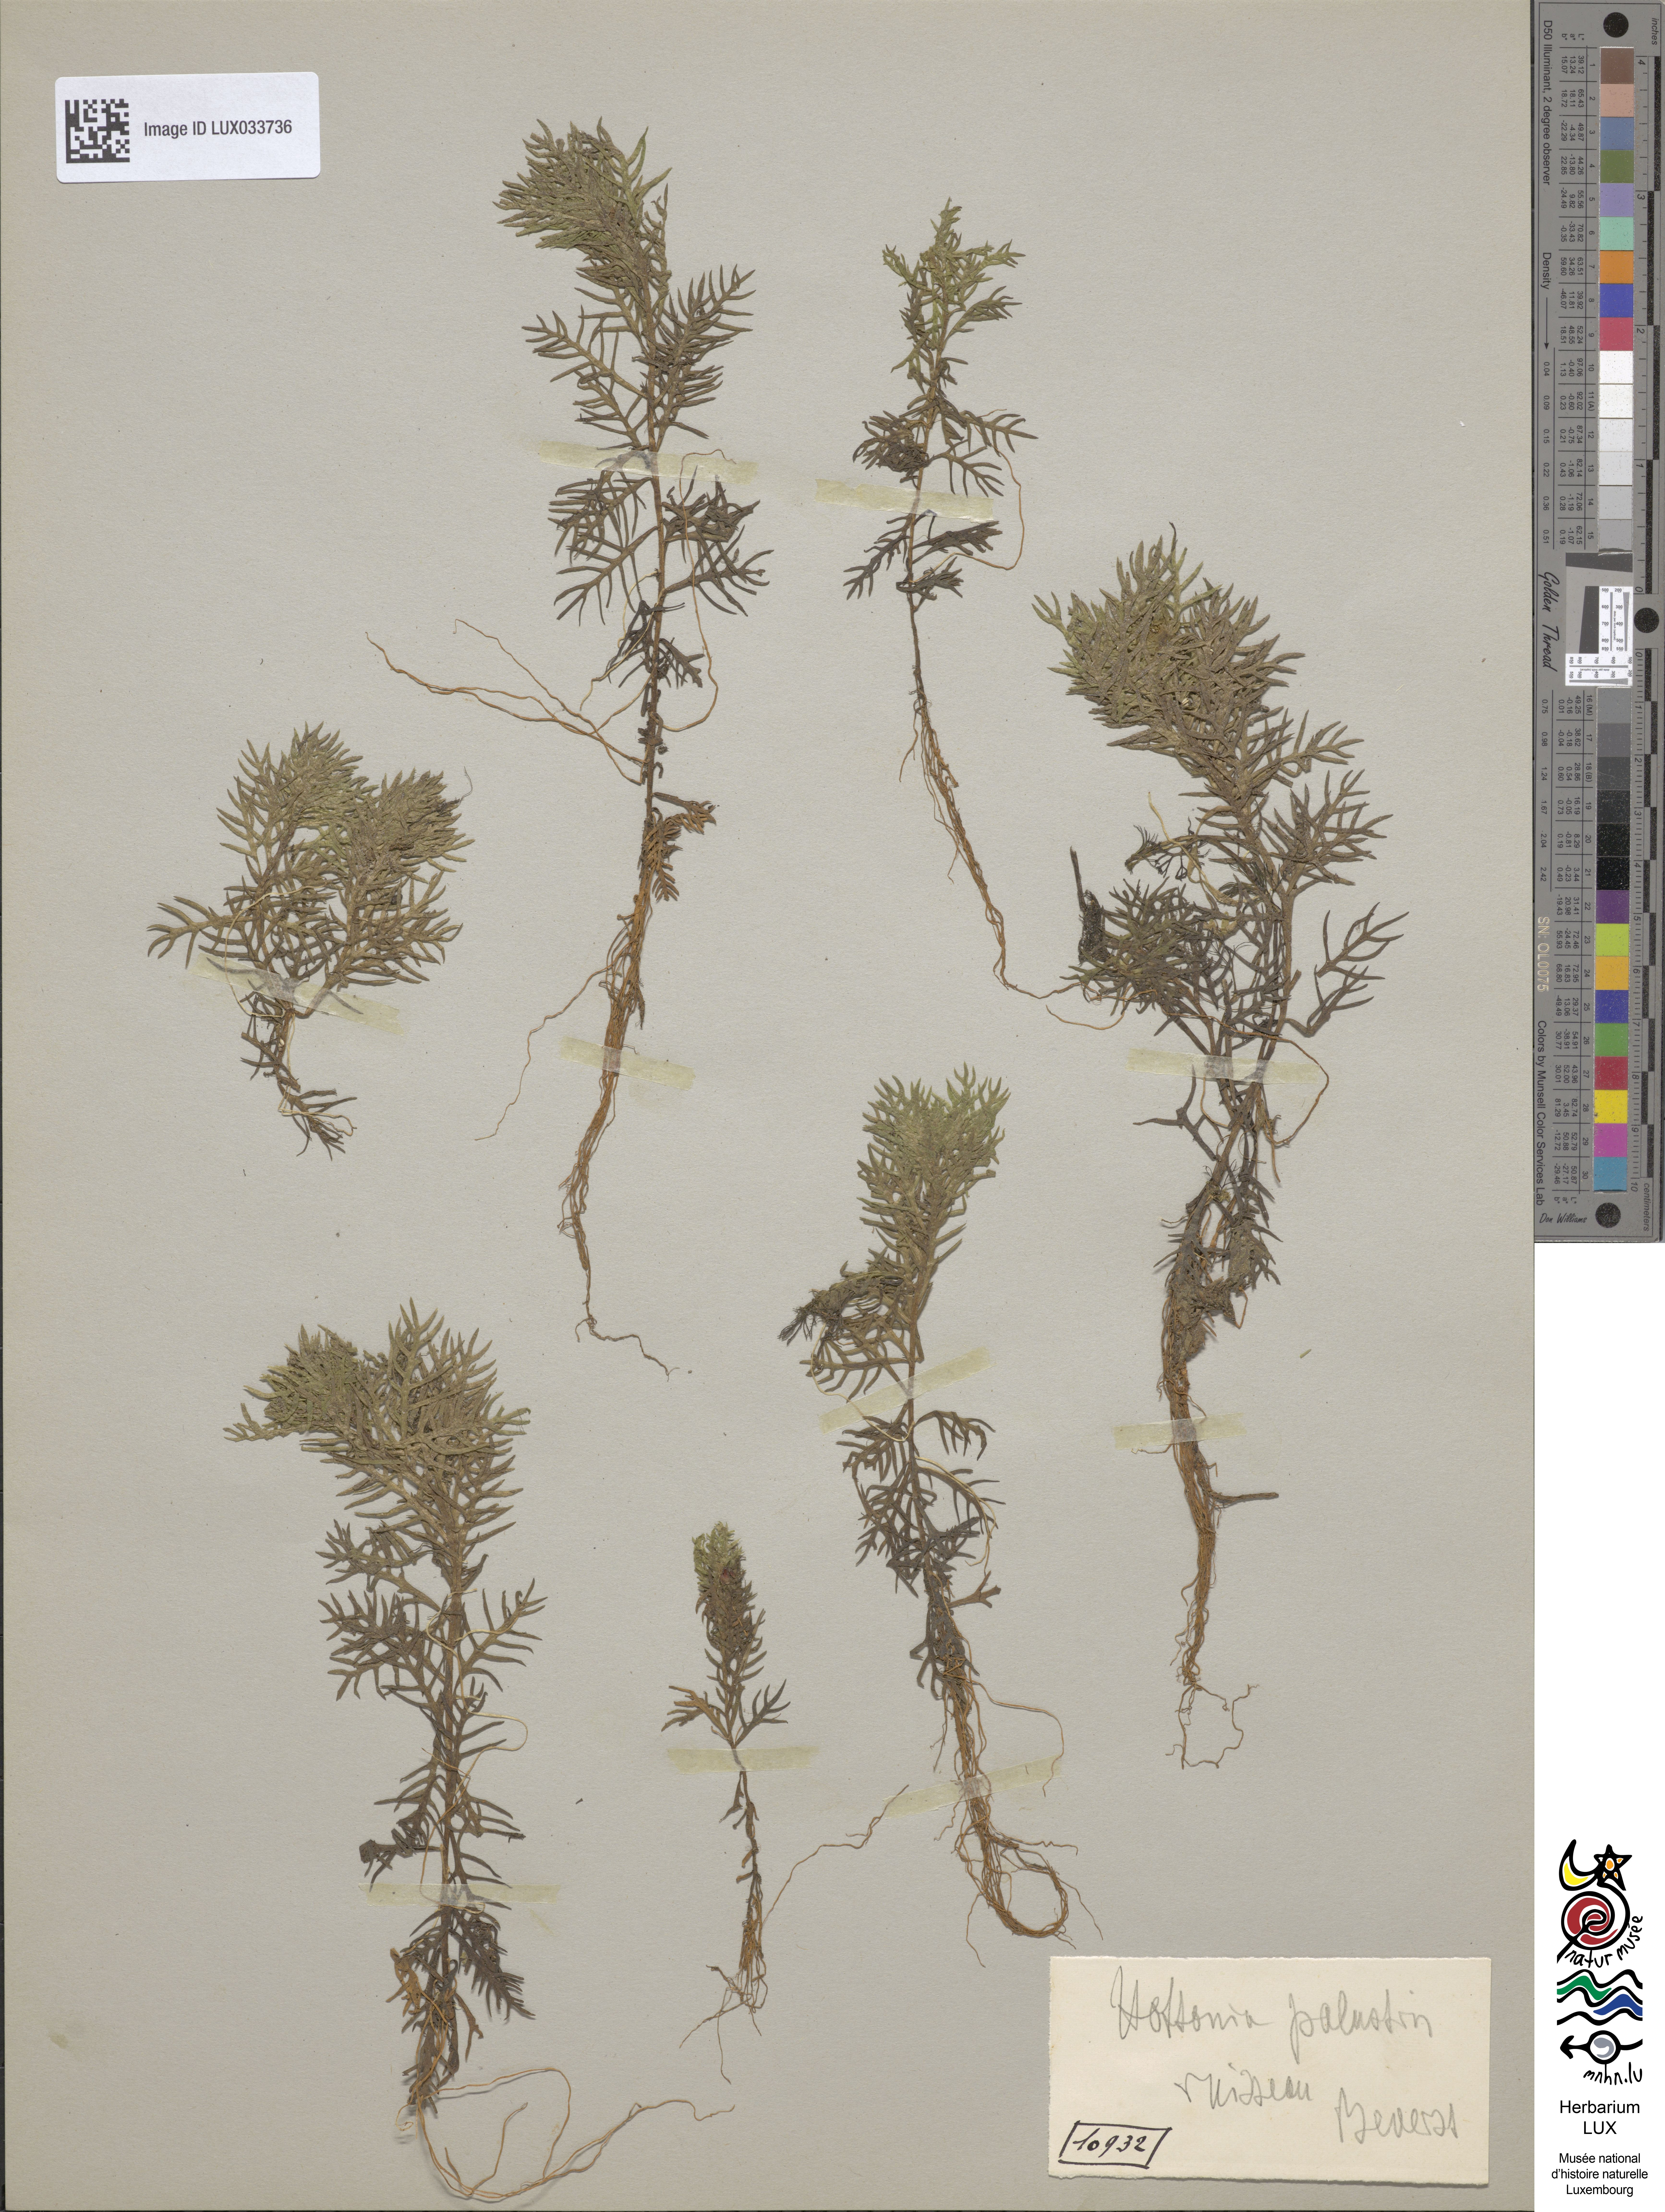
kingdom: Plantae
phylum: Tracheophyta
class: Magnoliopsida
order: Ericales
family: Primulaceae
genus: Hottonia
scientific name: Hottonia palustris
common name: Water-violet
